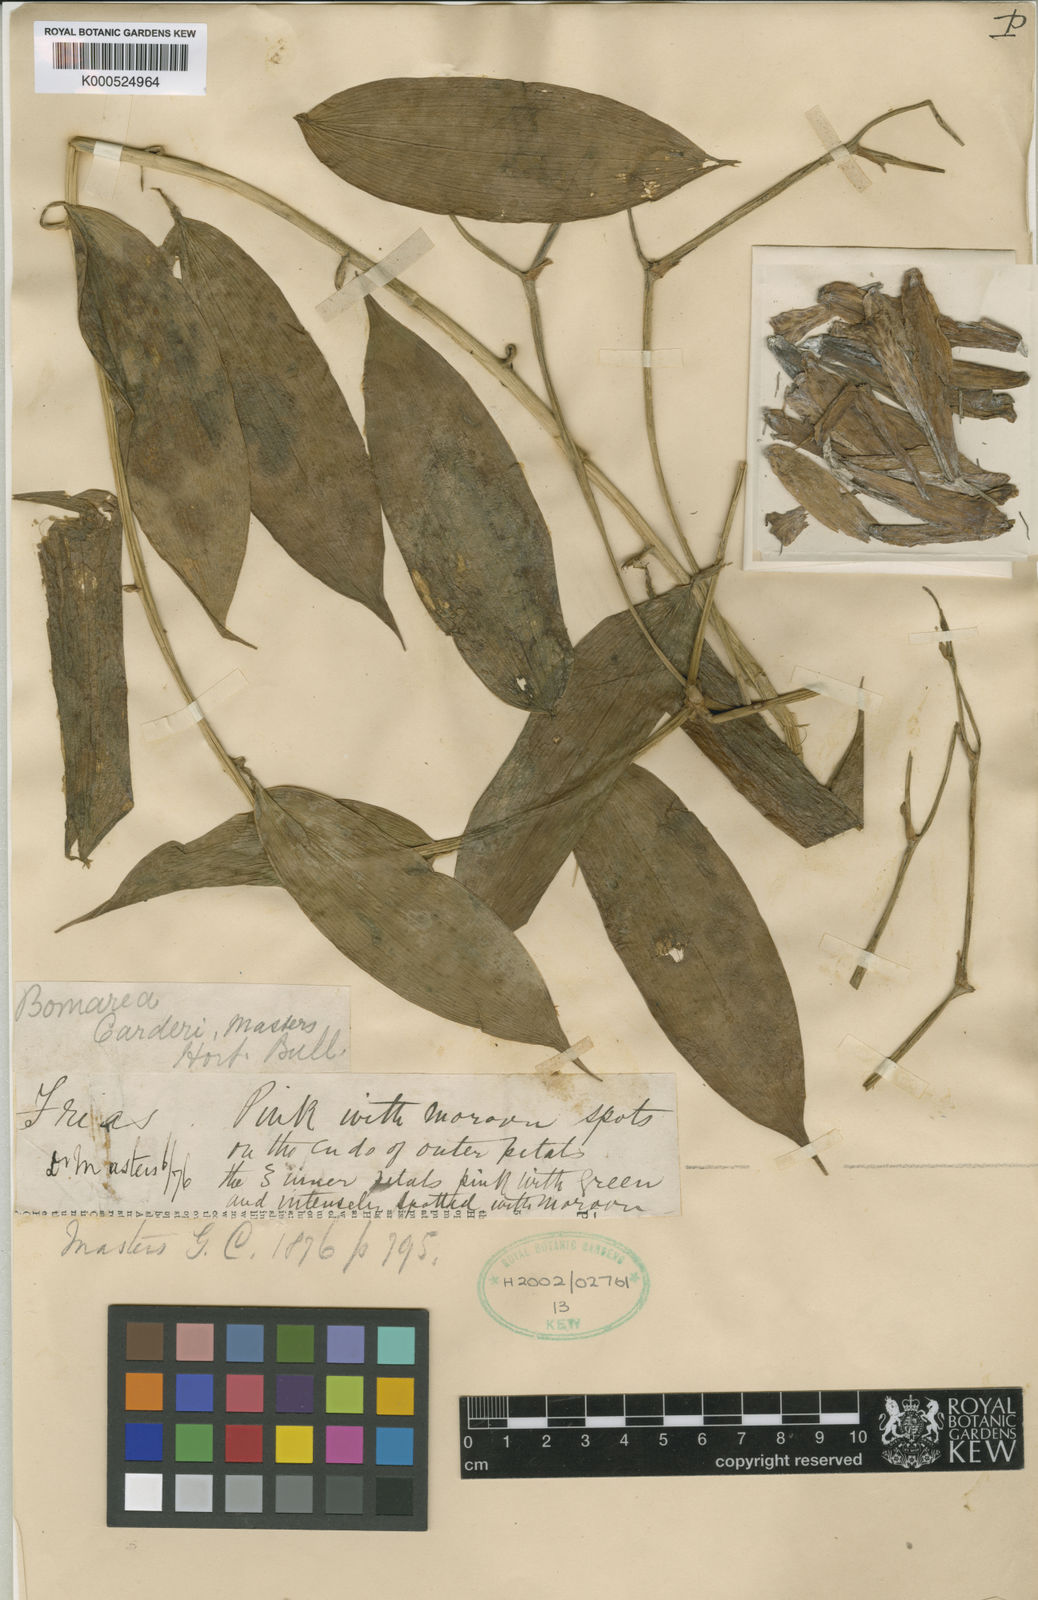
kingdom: Plantae
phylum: Tracheophyta
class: Liliopsida
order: Liliales
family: Alstroemeriaceae
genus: Bomarea
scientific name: Bomarea carderi
